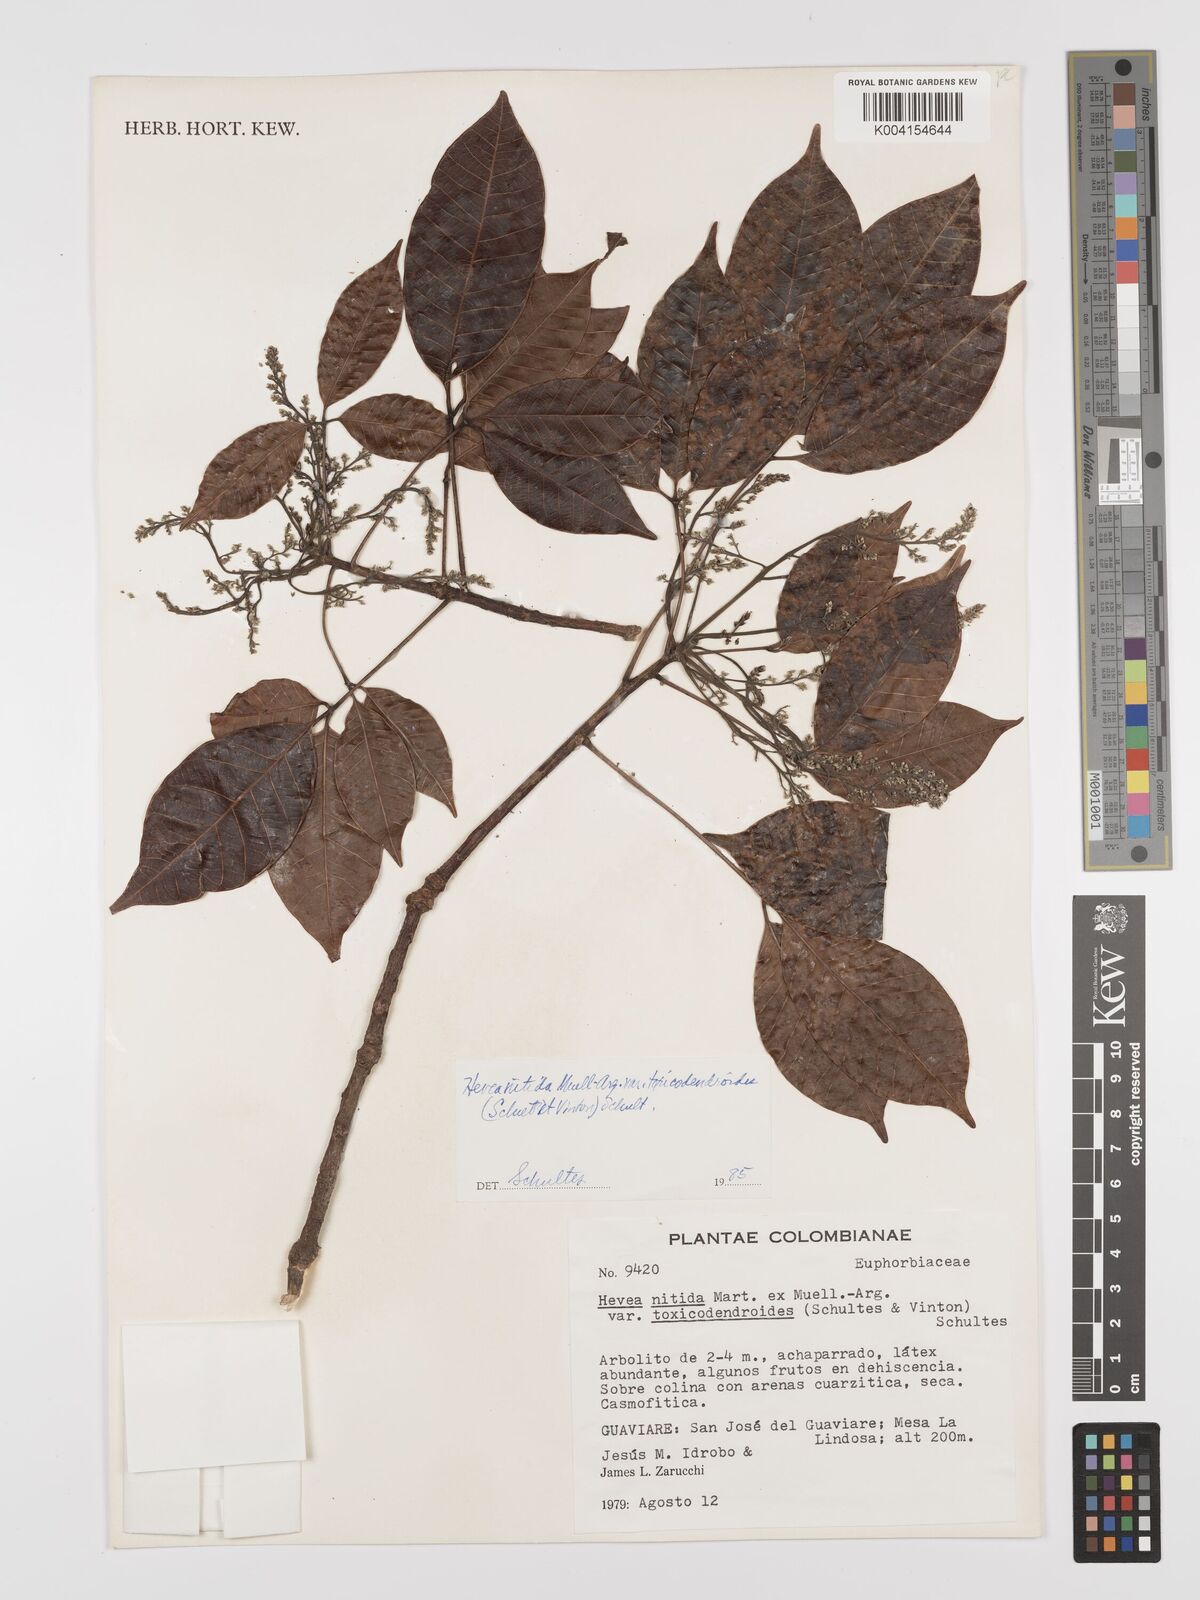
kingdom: Plantae
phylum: Tracheophyta
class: Magnoliopsida
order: Malpighiales
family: Euphorbiaceae
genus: Hevea
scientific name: Hevea nitida
